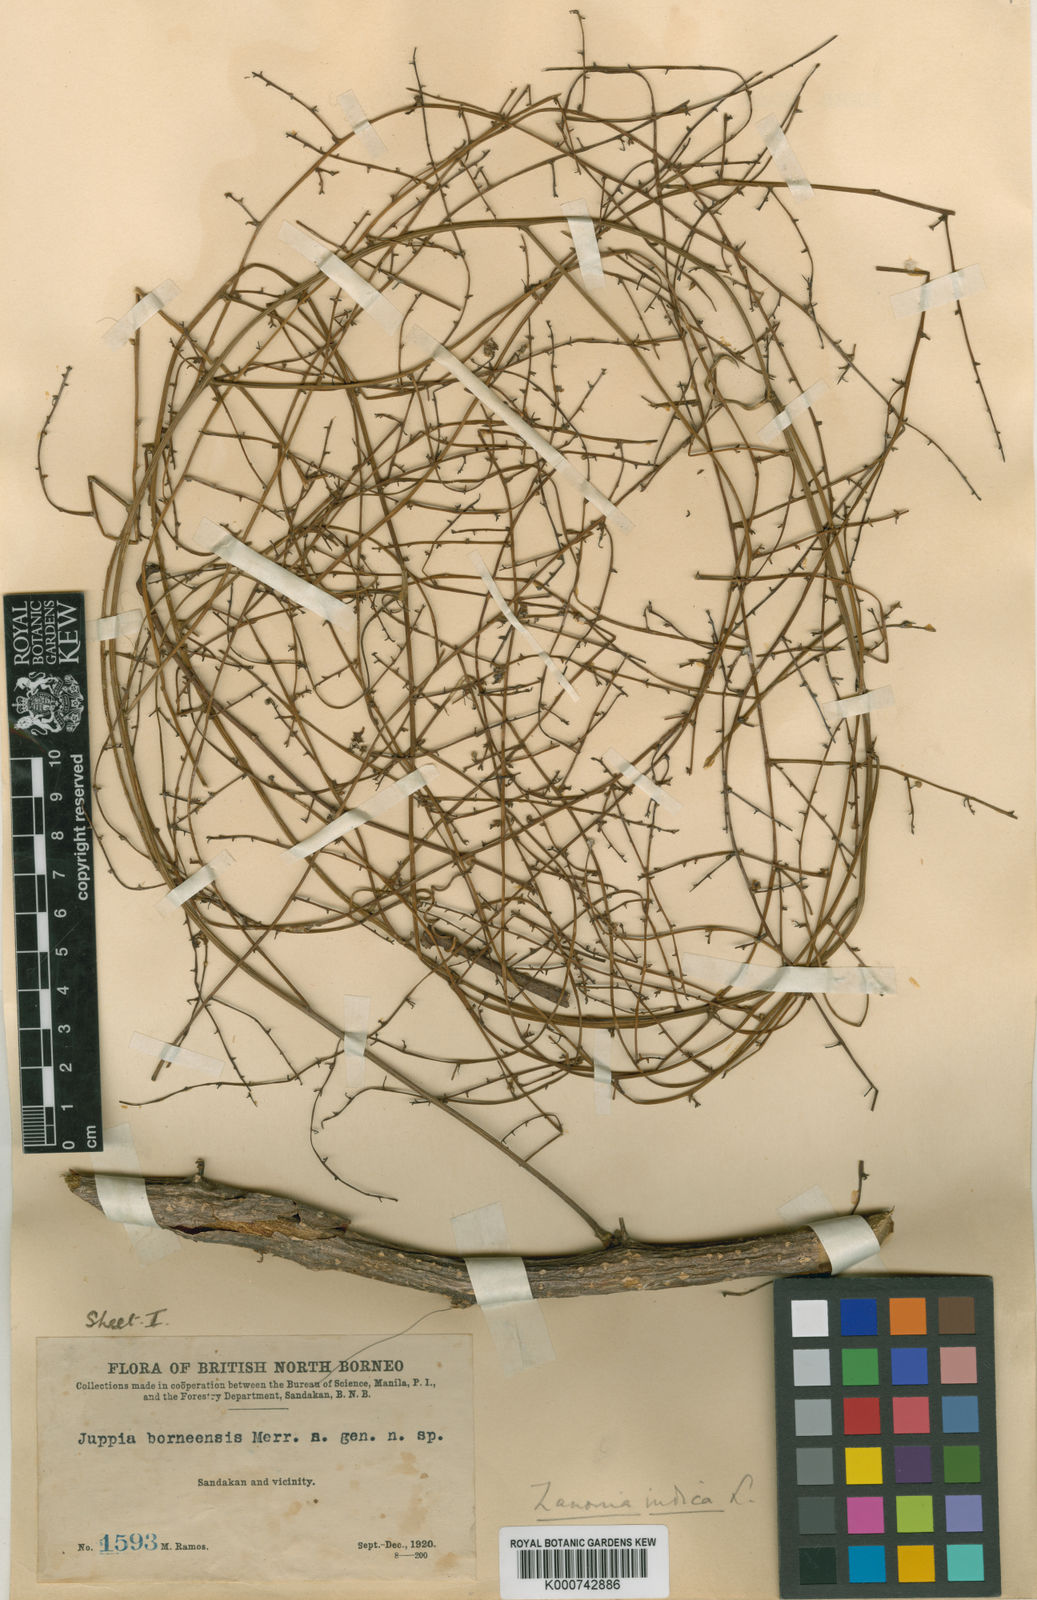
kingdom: Plantae
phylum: Tracheophyta
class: Magnoliopsida
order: Cucurbitales
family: Cucurbitaceae
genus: Zanonia
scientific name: Zanonia indica
